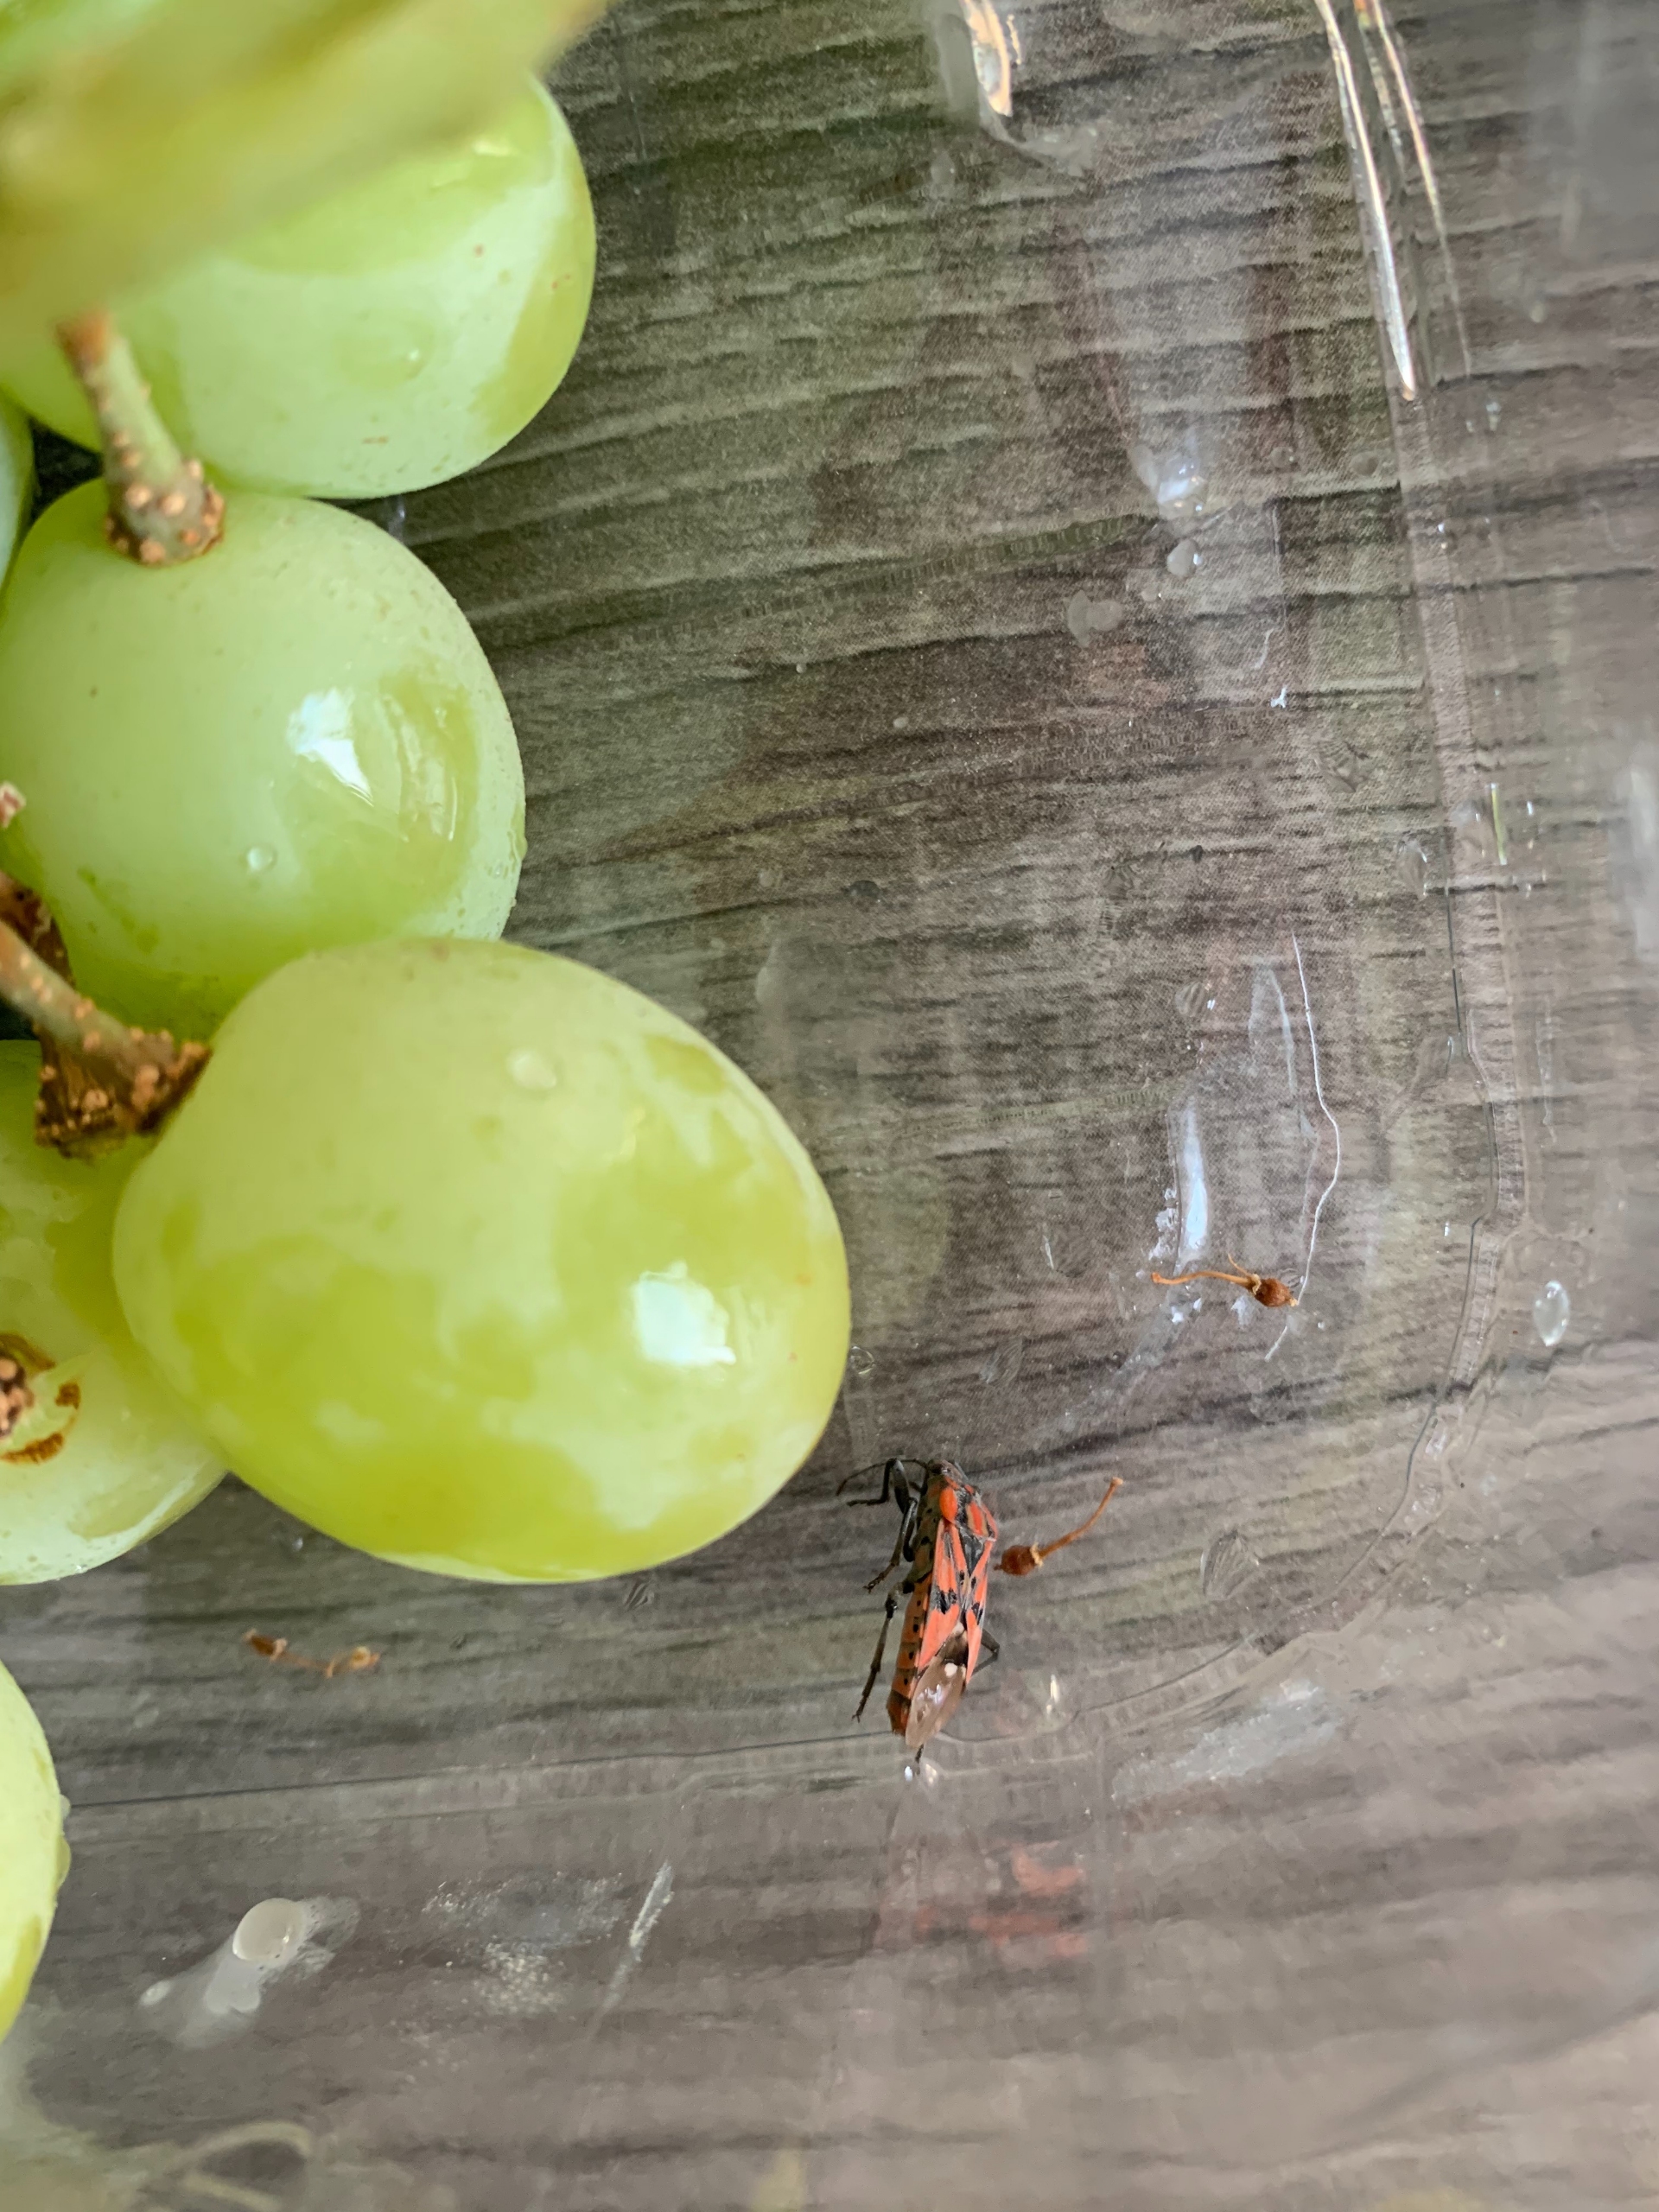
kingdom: Animalia
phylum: Arthropoda
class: Insecta
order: Hemiptera
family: Lygaeidae
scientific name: Lygaeidae
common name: Frøtæger
